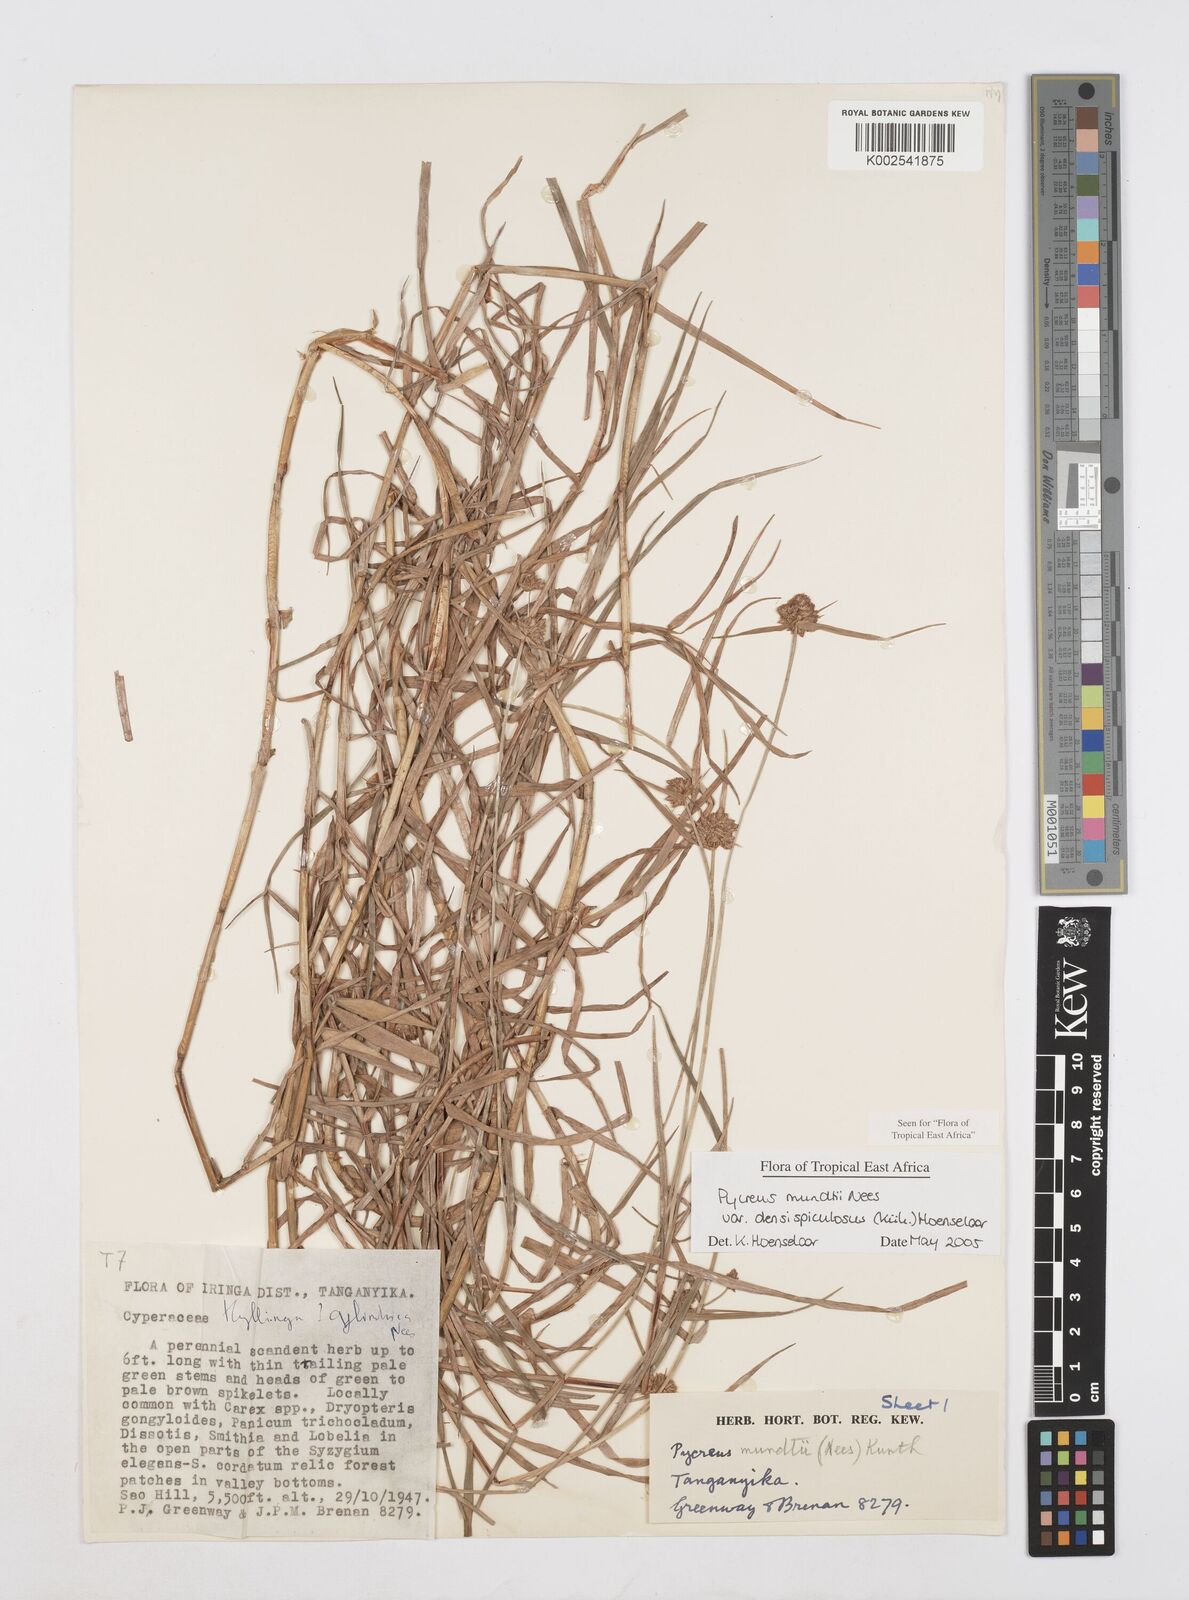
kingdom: Plantae
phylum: Tracheophyta
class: Liliopsida
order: Poales
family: Cyperaceae
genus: Cyperus
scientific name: Cyperus mundii
